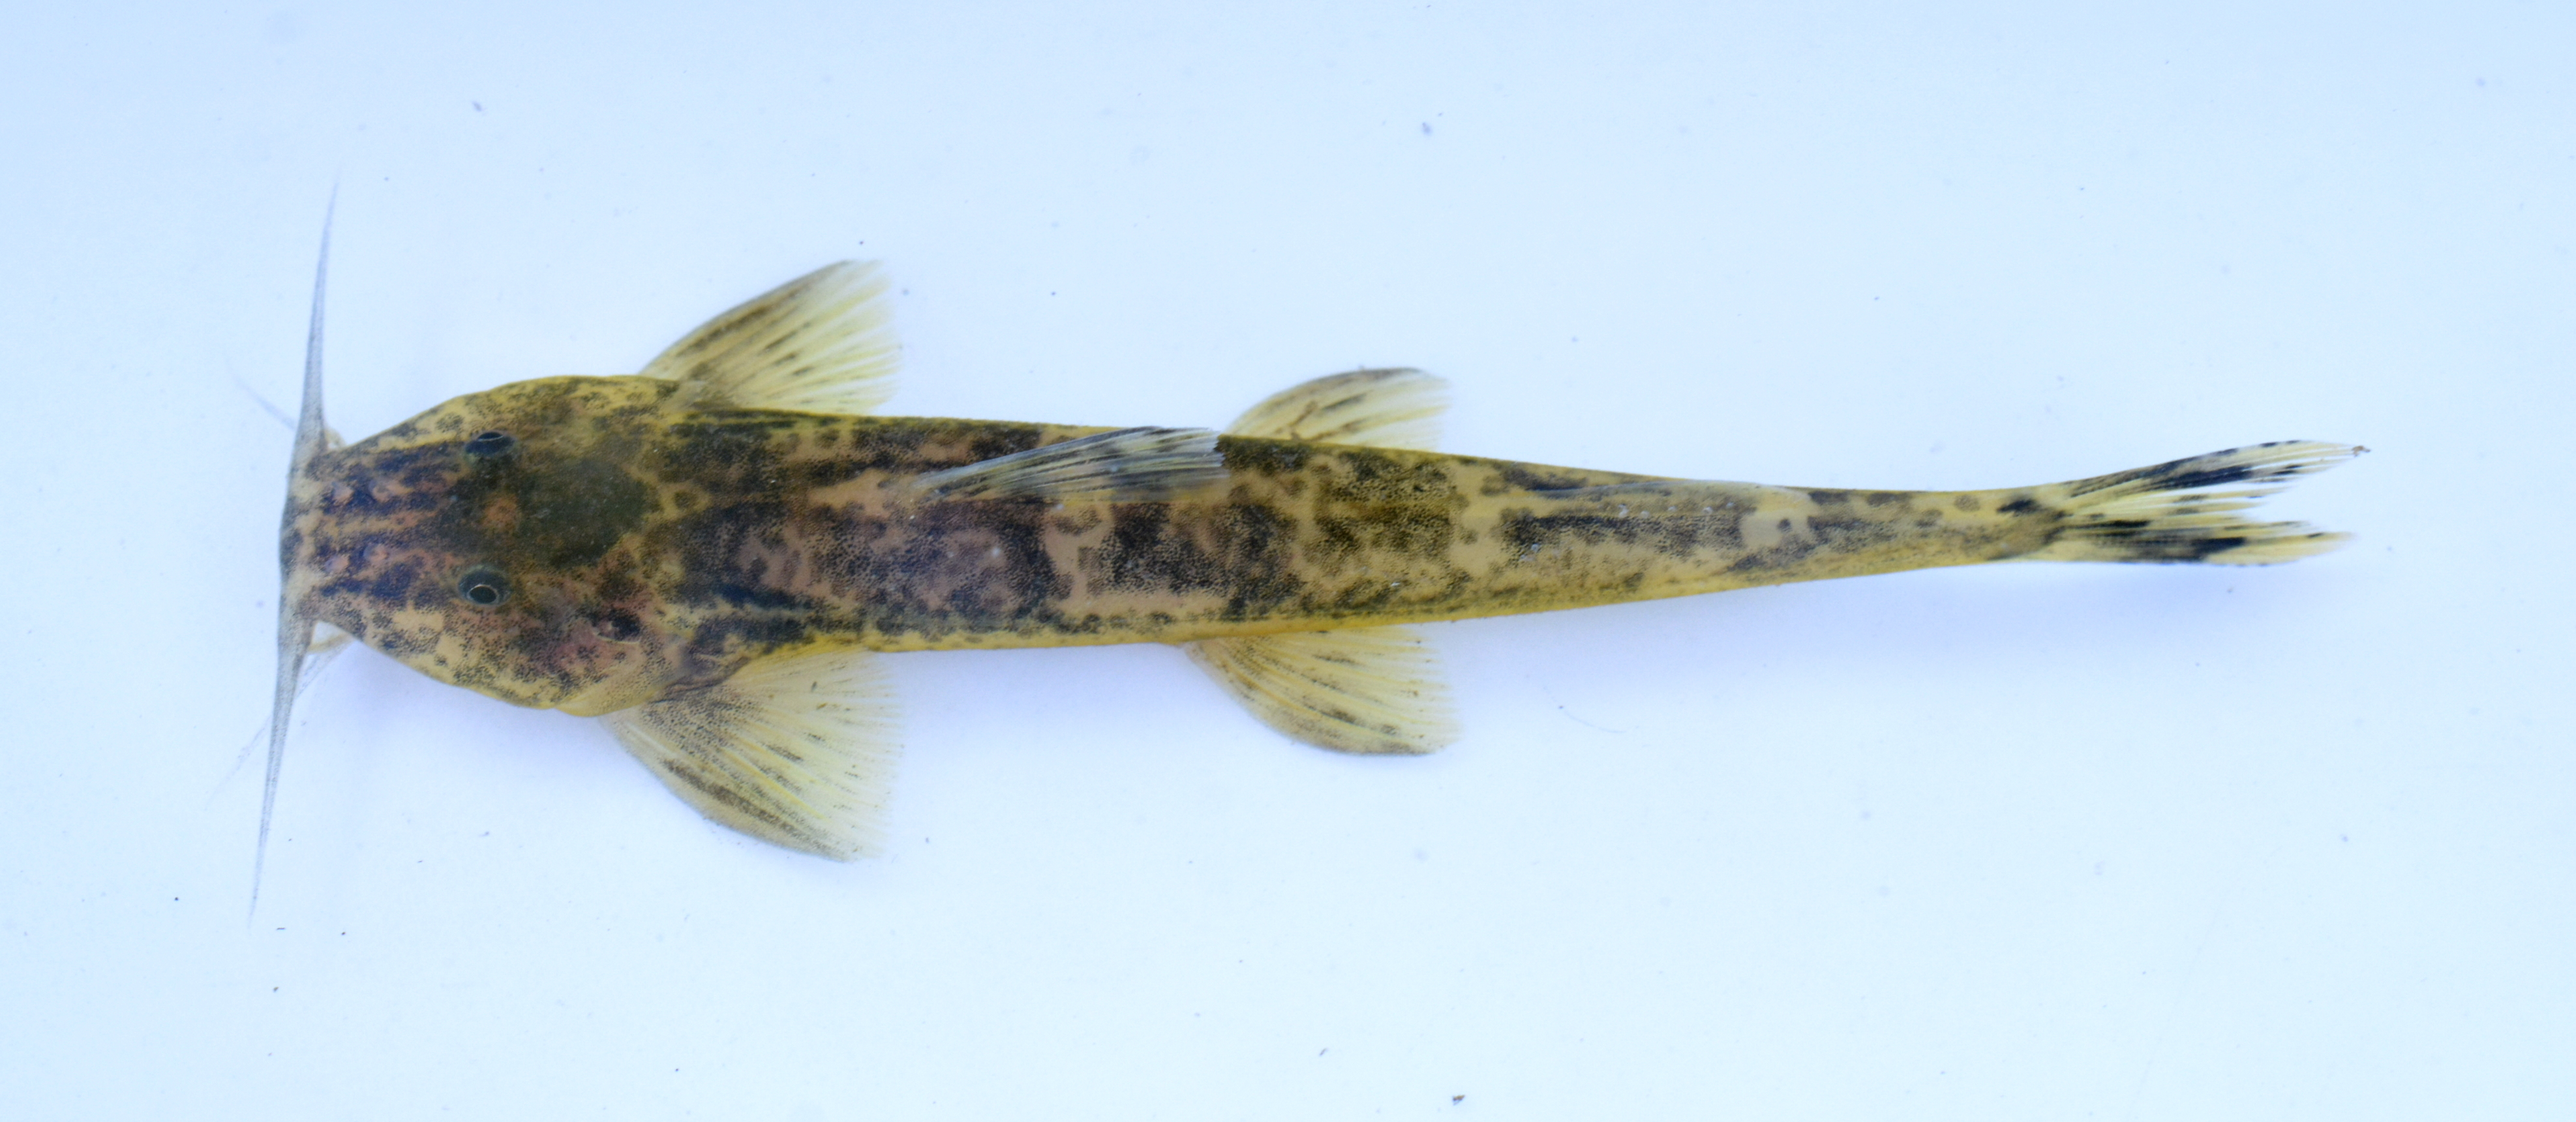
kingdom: Animalia
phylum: Chordata
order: Siluriformes
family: Amphiliidae
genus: Amphilius
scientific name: Amphilius uranoscopus
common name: Stargazer mountain catfish
